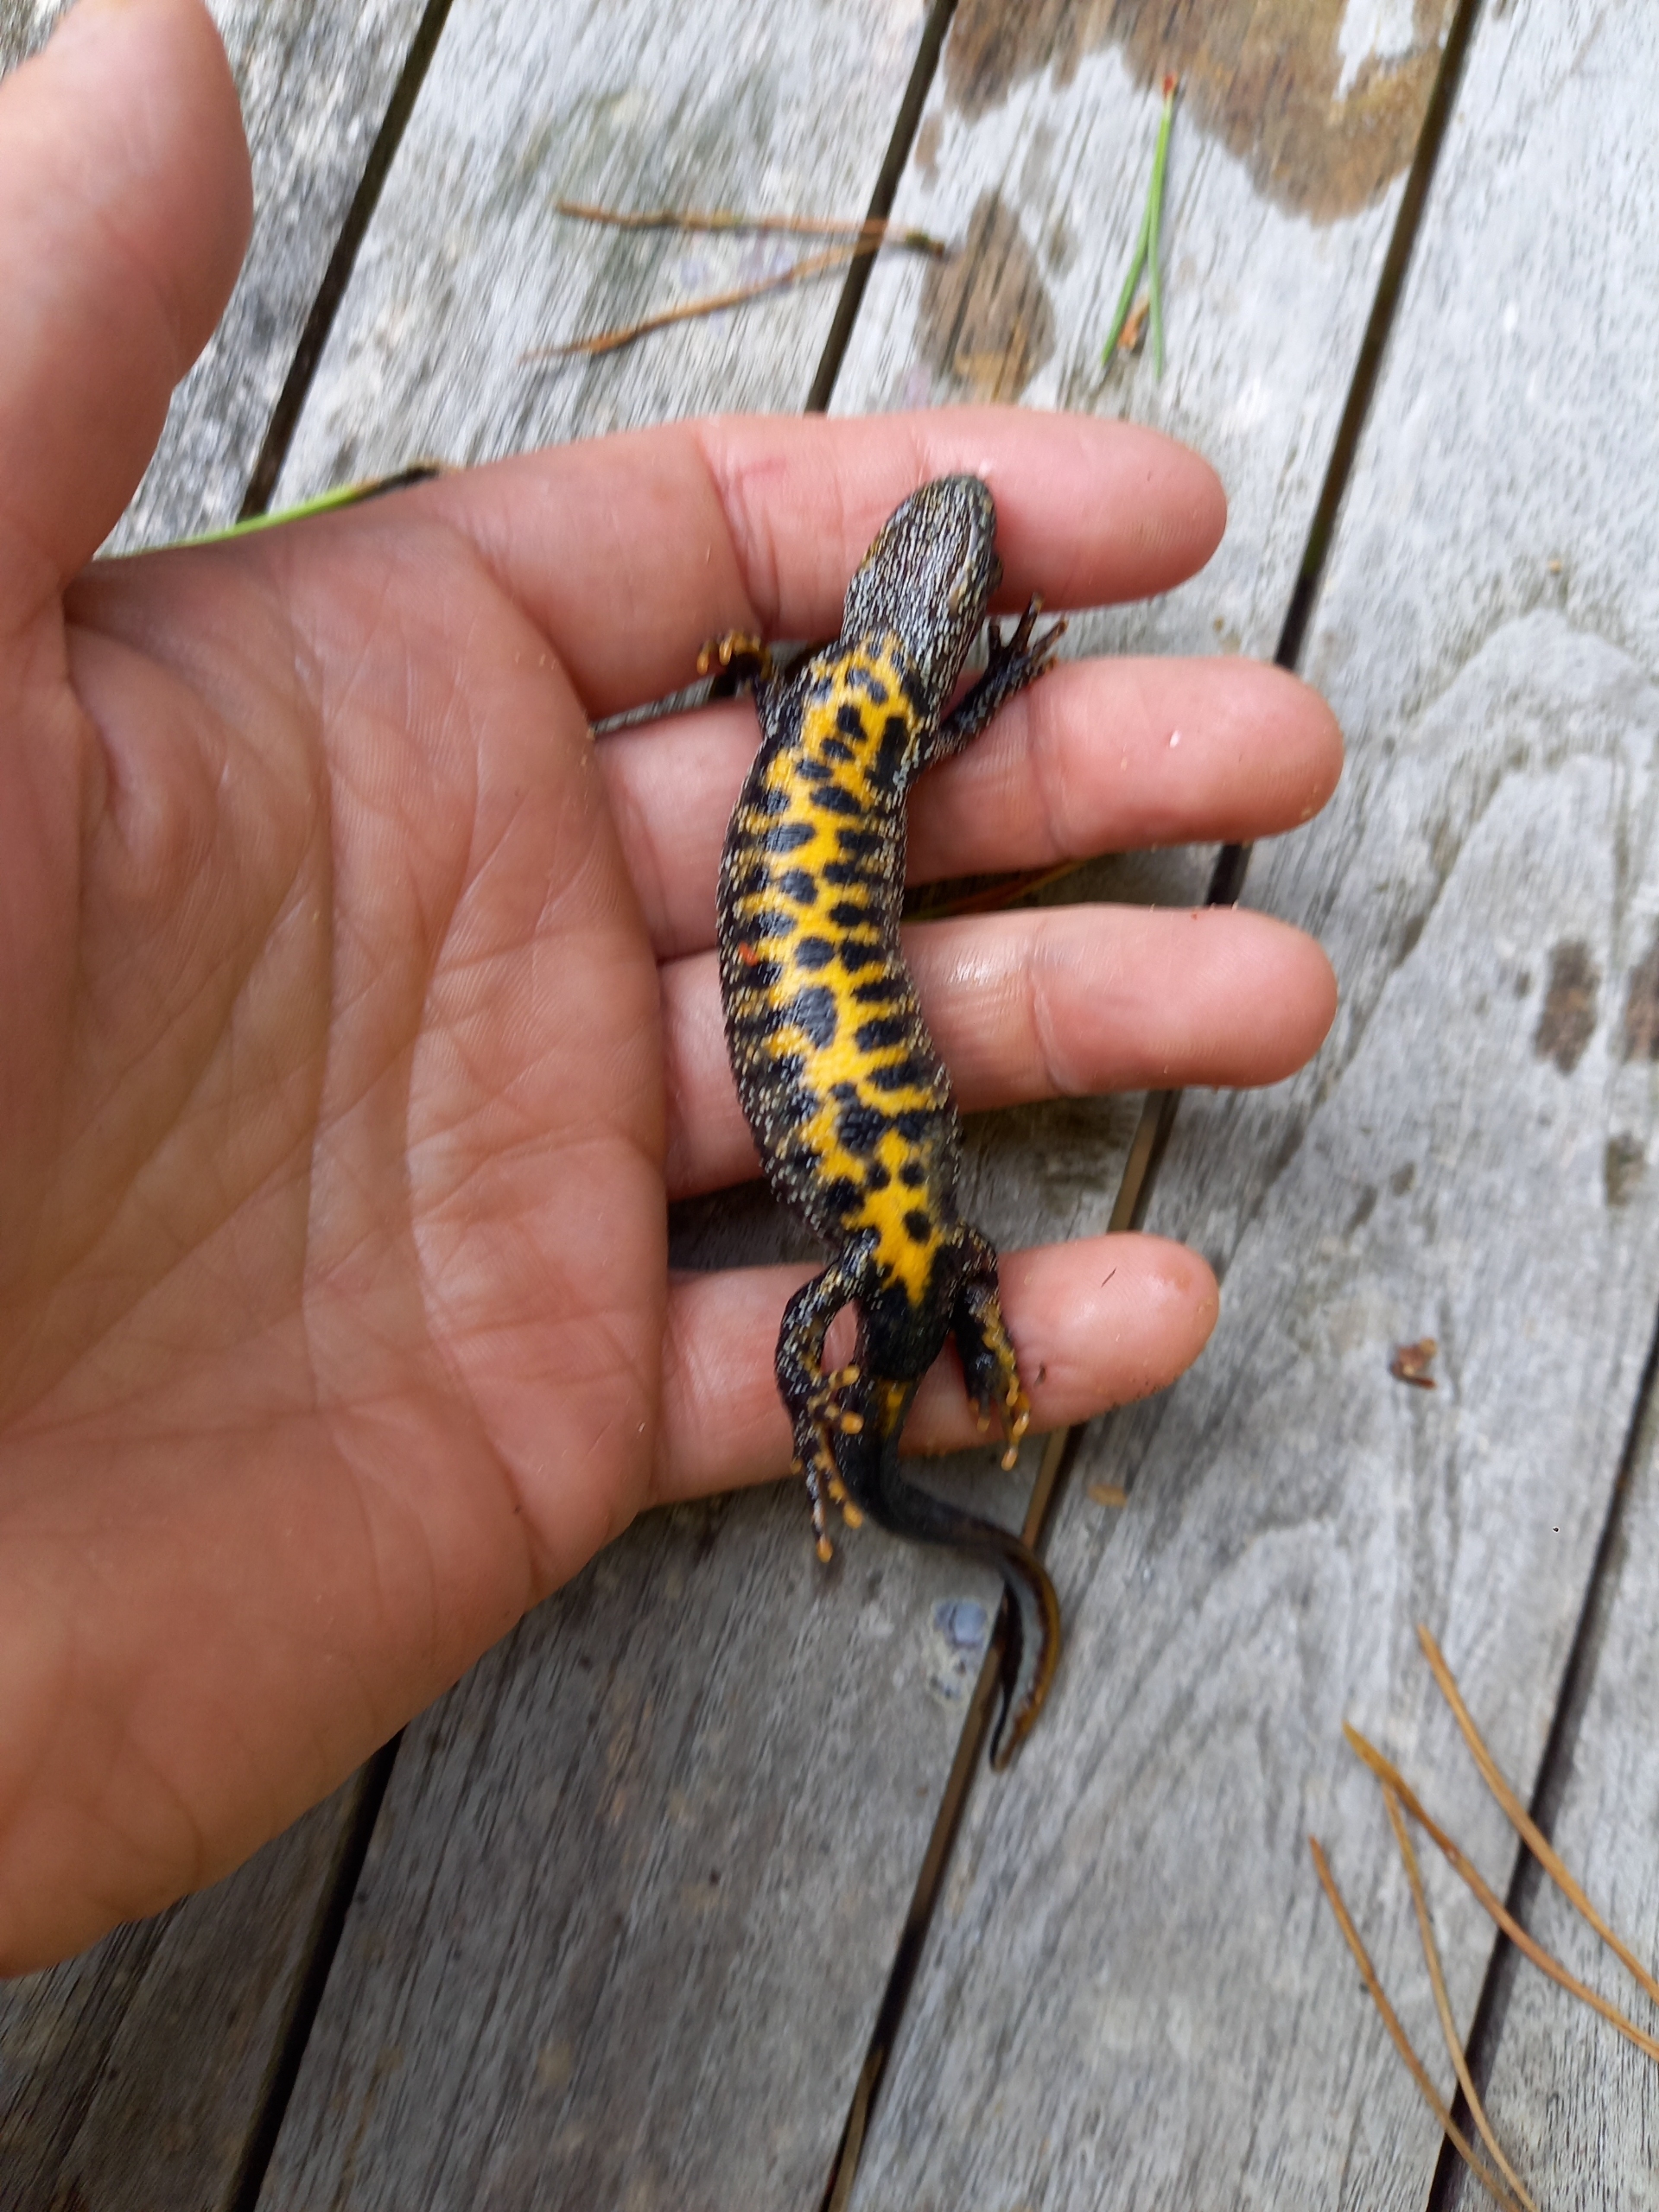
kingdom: Animalia
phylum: Chordata
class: Amphibia
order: Caudata
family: Salamandridae
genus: Triturus
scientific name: Triturus cristatus
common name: Stor vandsalamander
